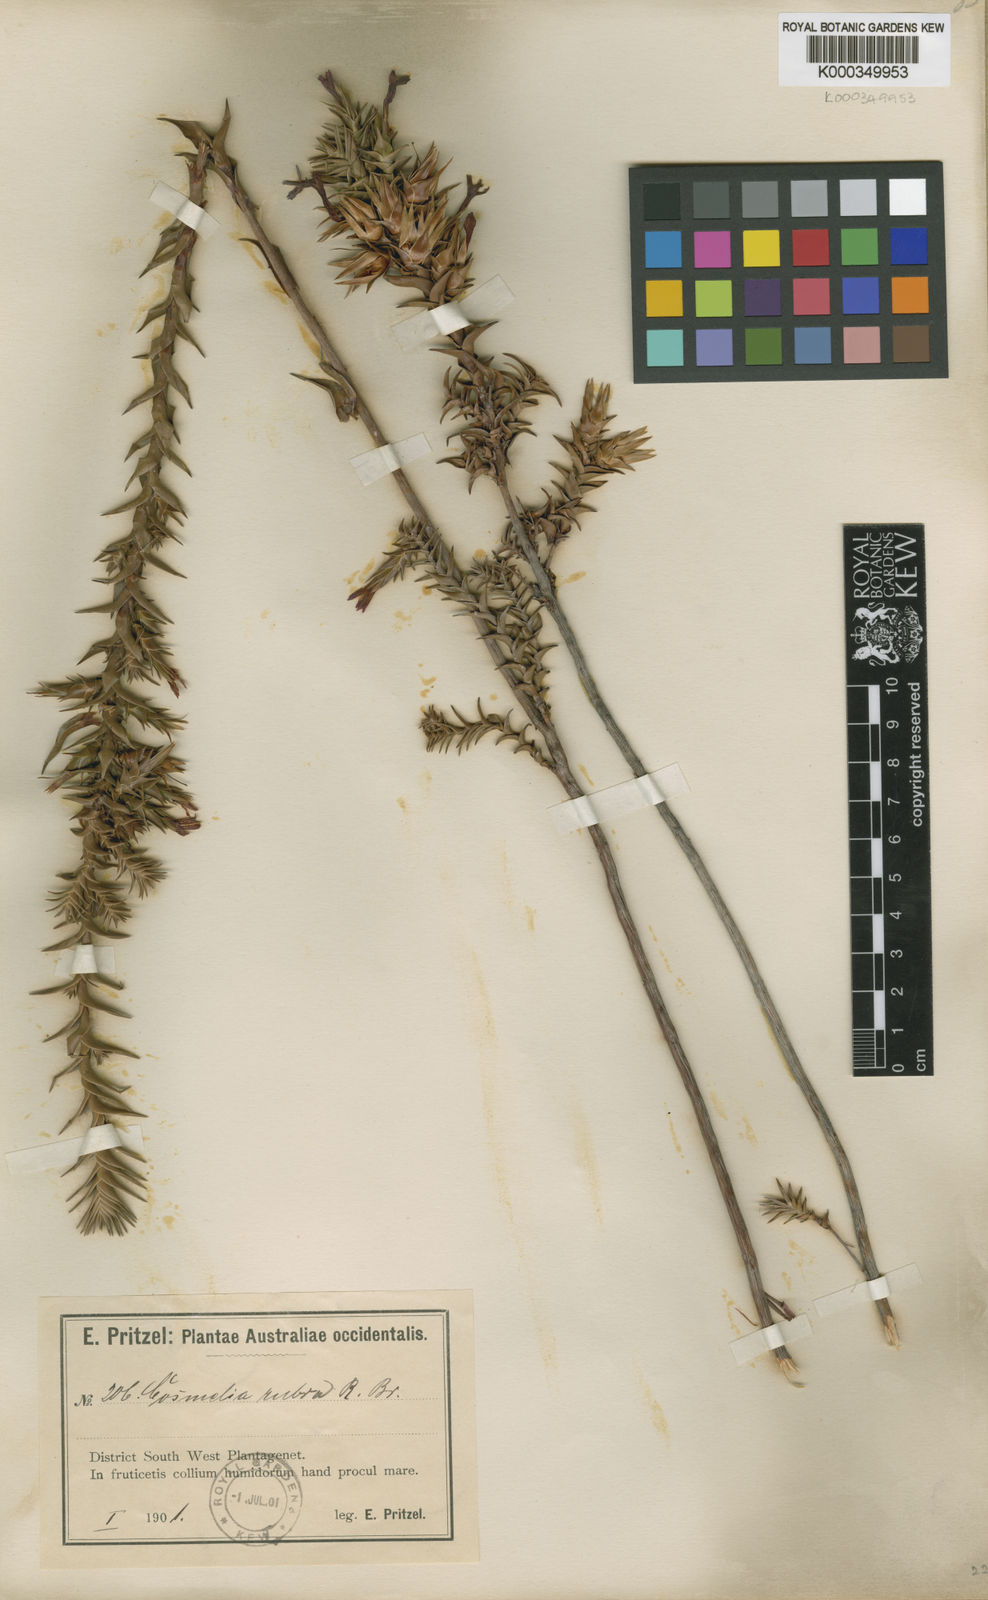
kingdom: Plantae
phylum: Tracheophyta
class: Magnoliopsida
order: Ericales
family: Ericaceae
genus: Cosmelia
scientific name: Cosmelia rubra
